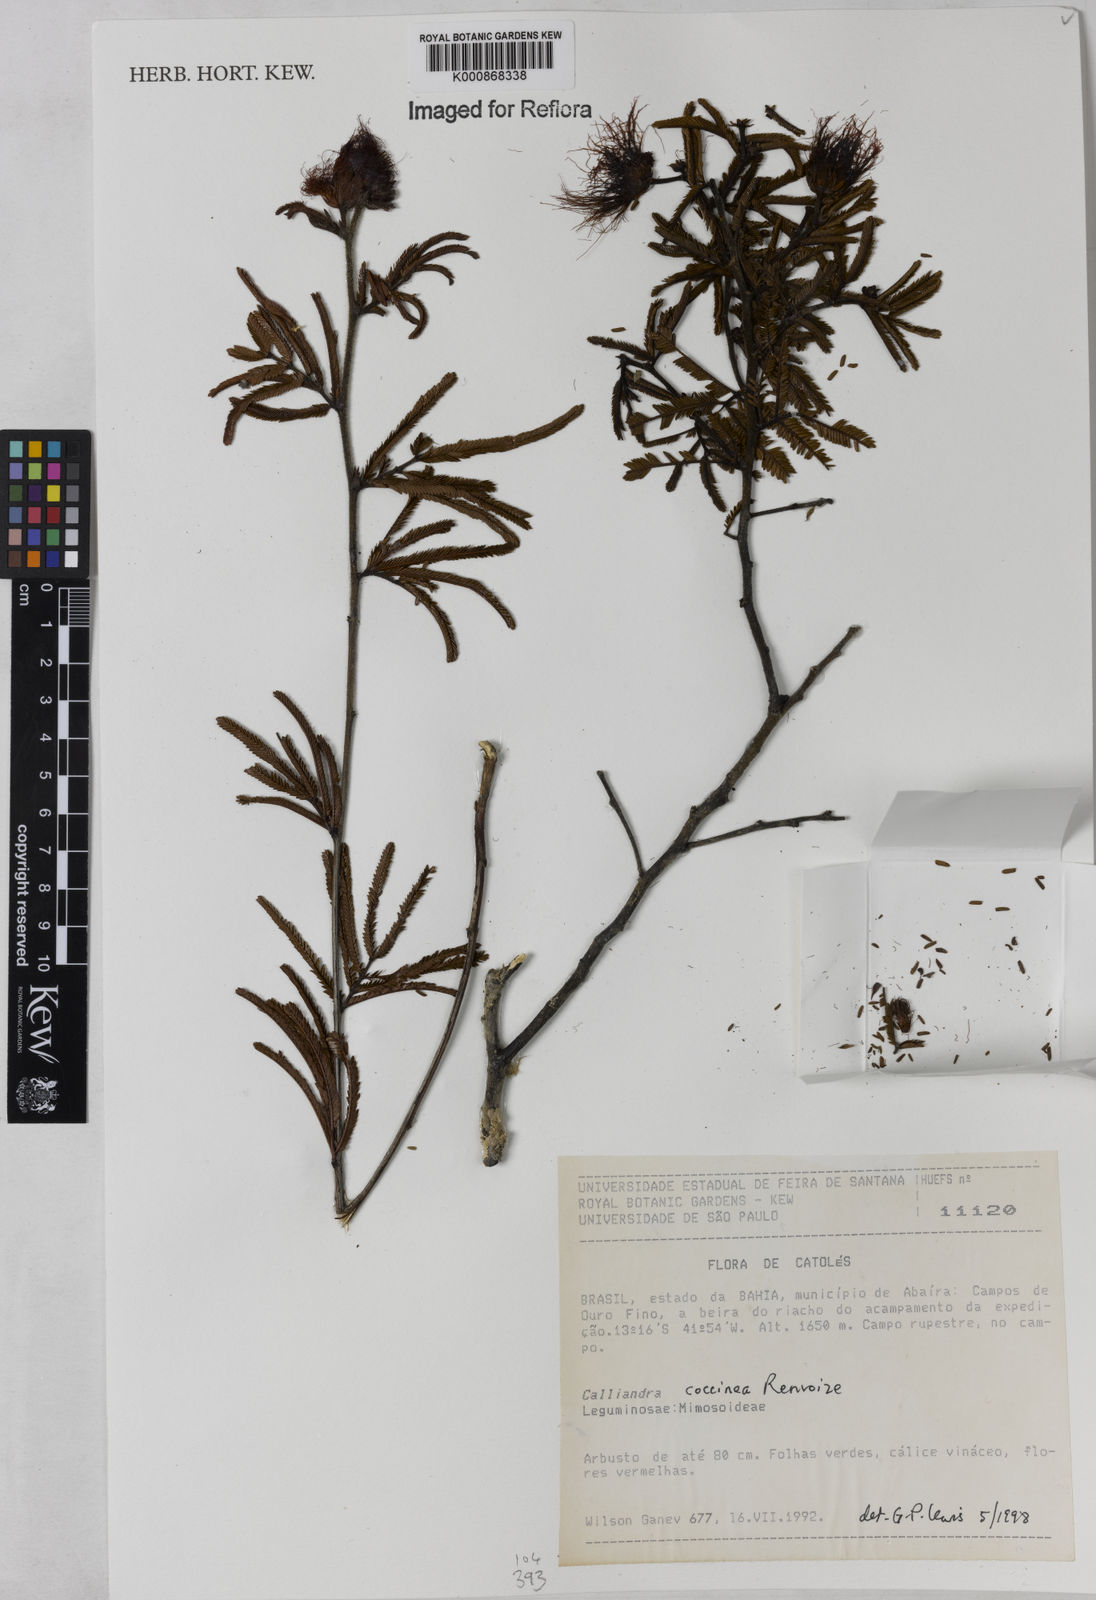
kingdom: Plantae
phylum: Tracheophyta
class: Magnoliopsida
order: Fabales
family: Fabaceae
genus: Calliandra
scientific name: Calliandra coccinea
